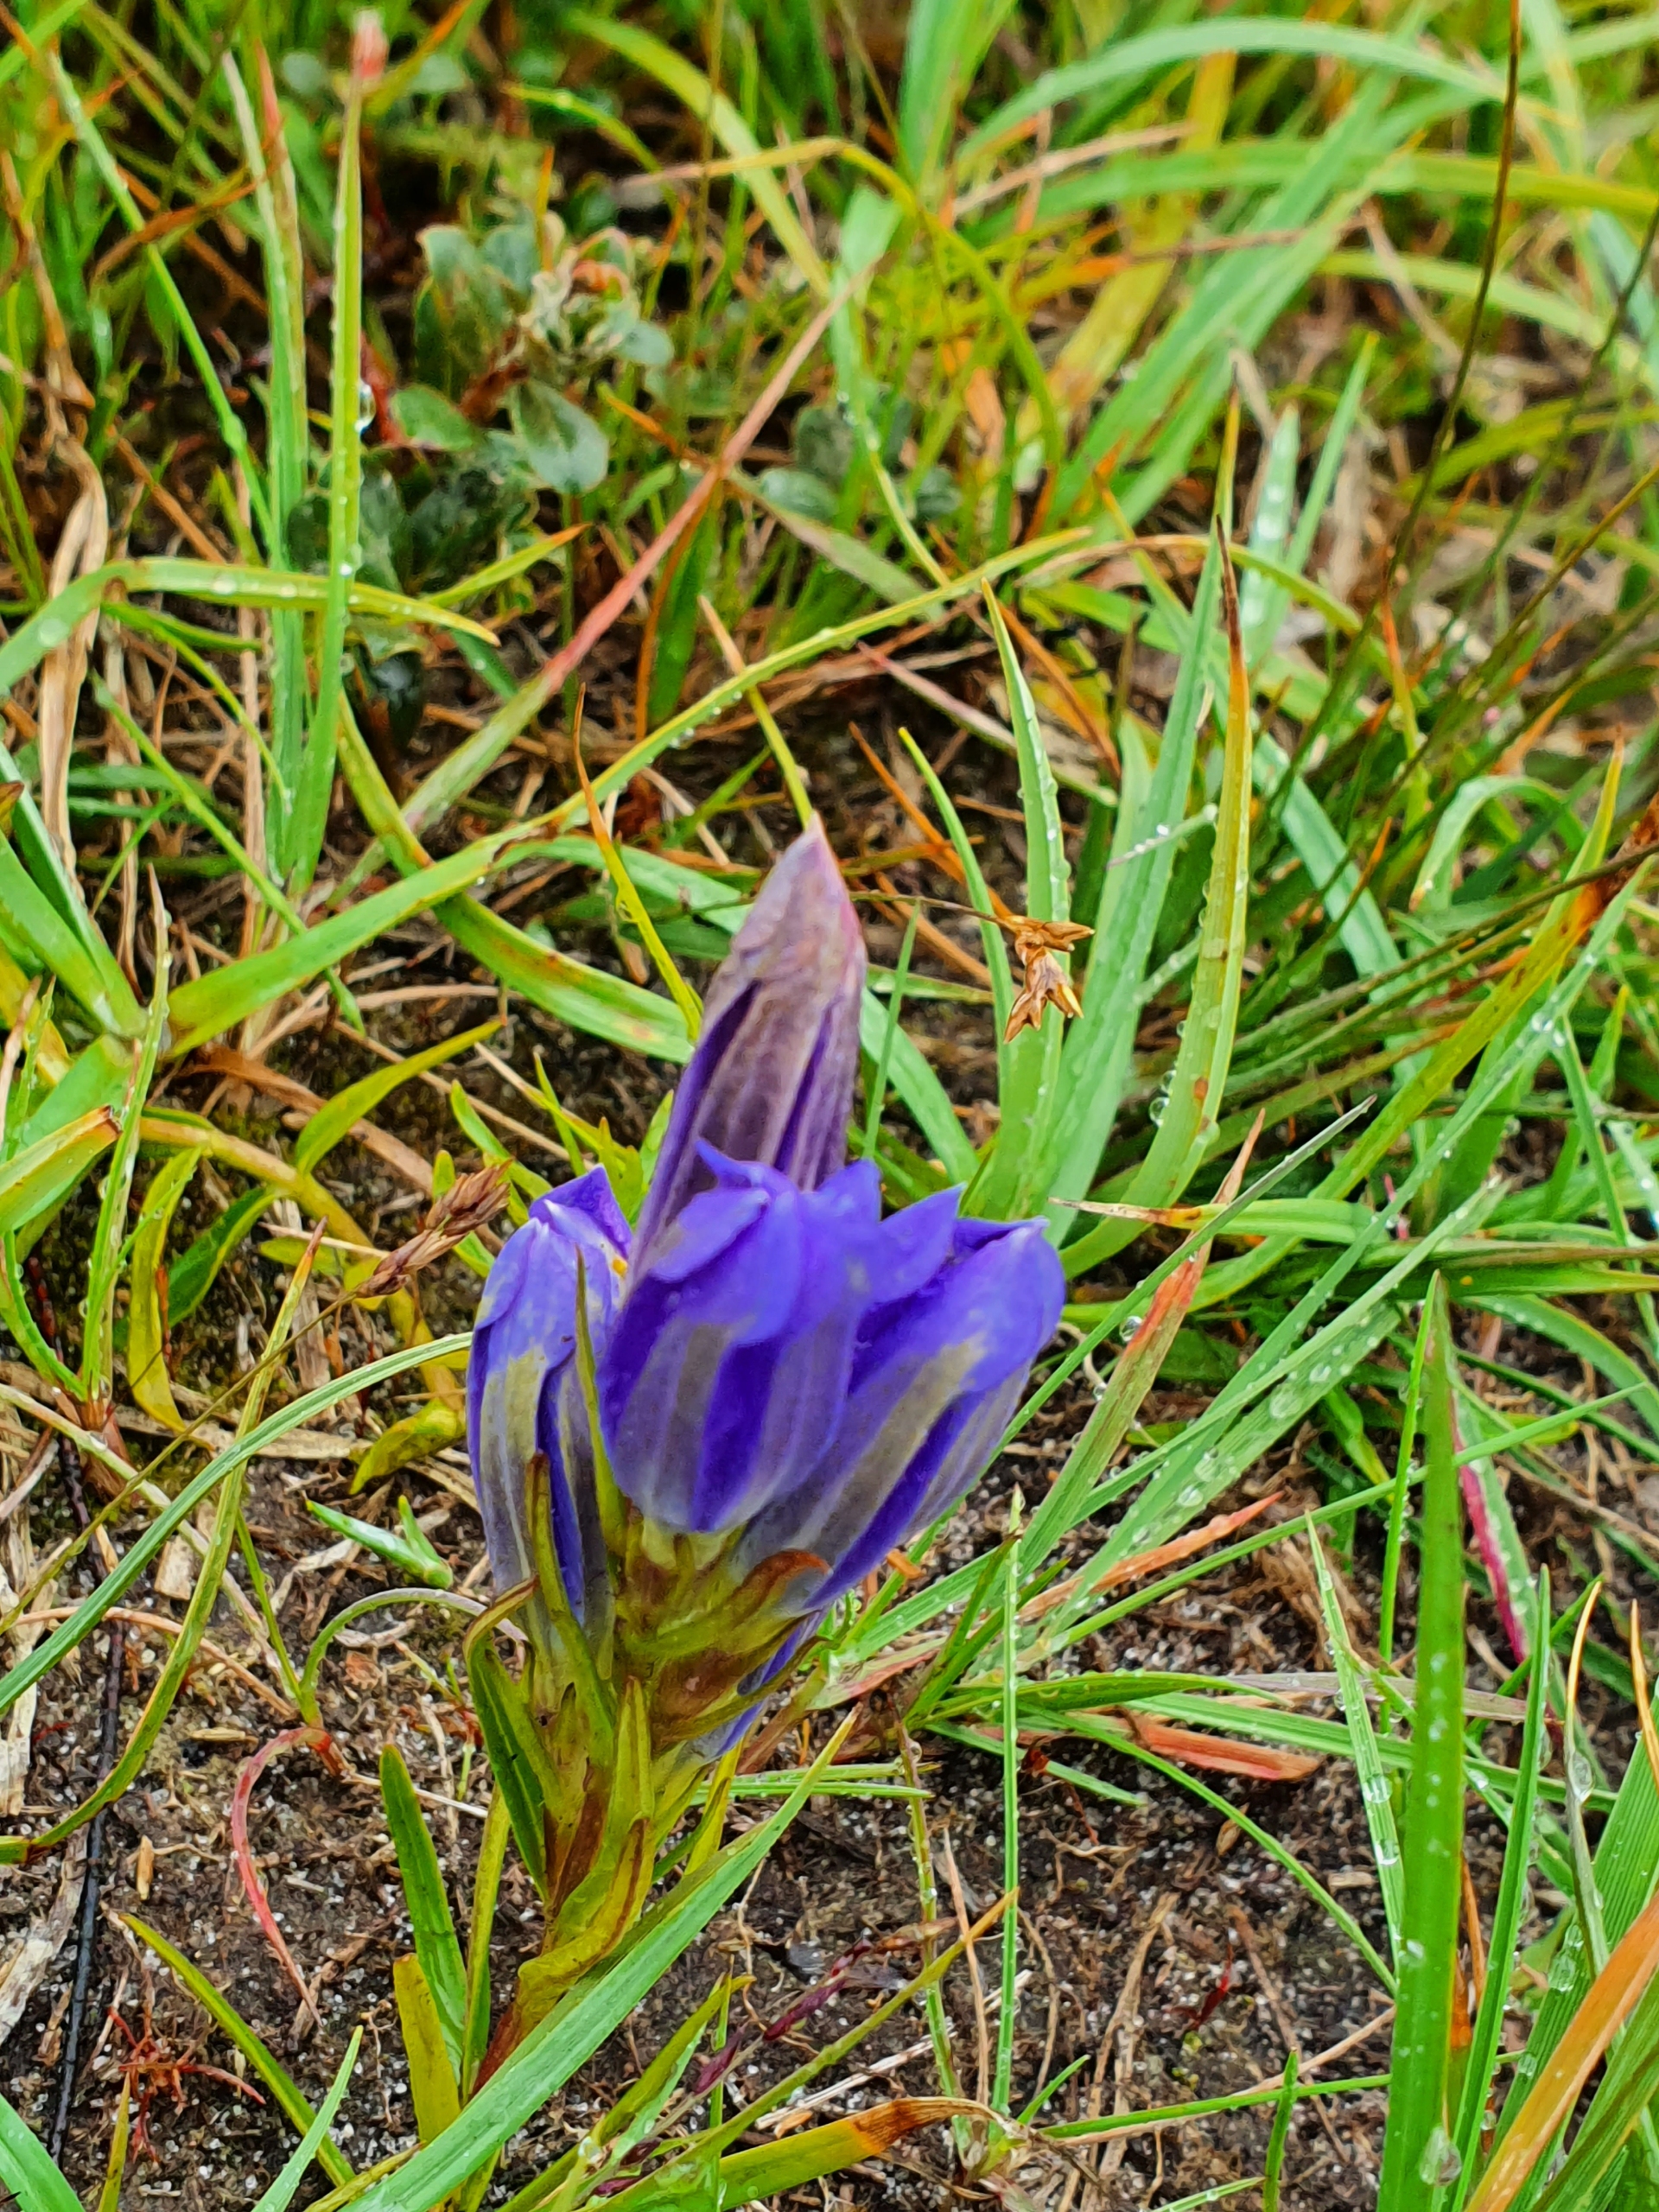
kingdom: Plantae
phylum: Tracheophyta
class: Magnoliopsida
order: Gentianales
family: Gentianaceae
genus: Gentiana
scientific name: Gentiana pneumonanthe
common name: Klokke-ensian
